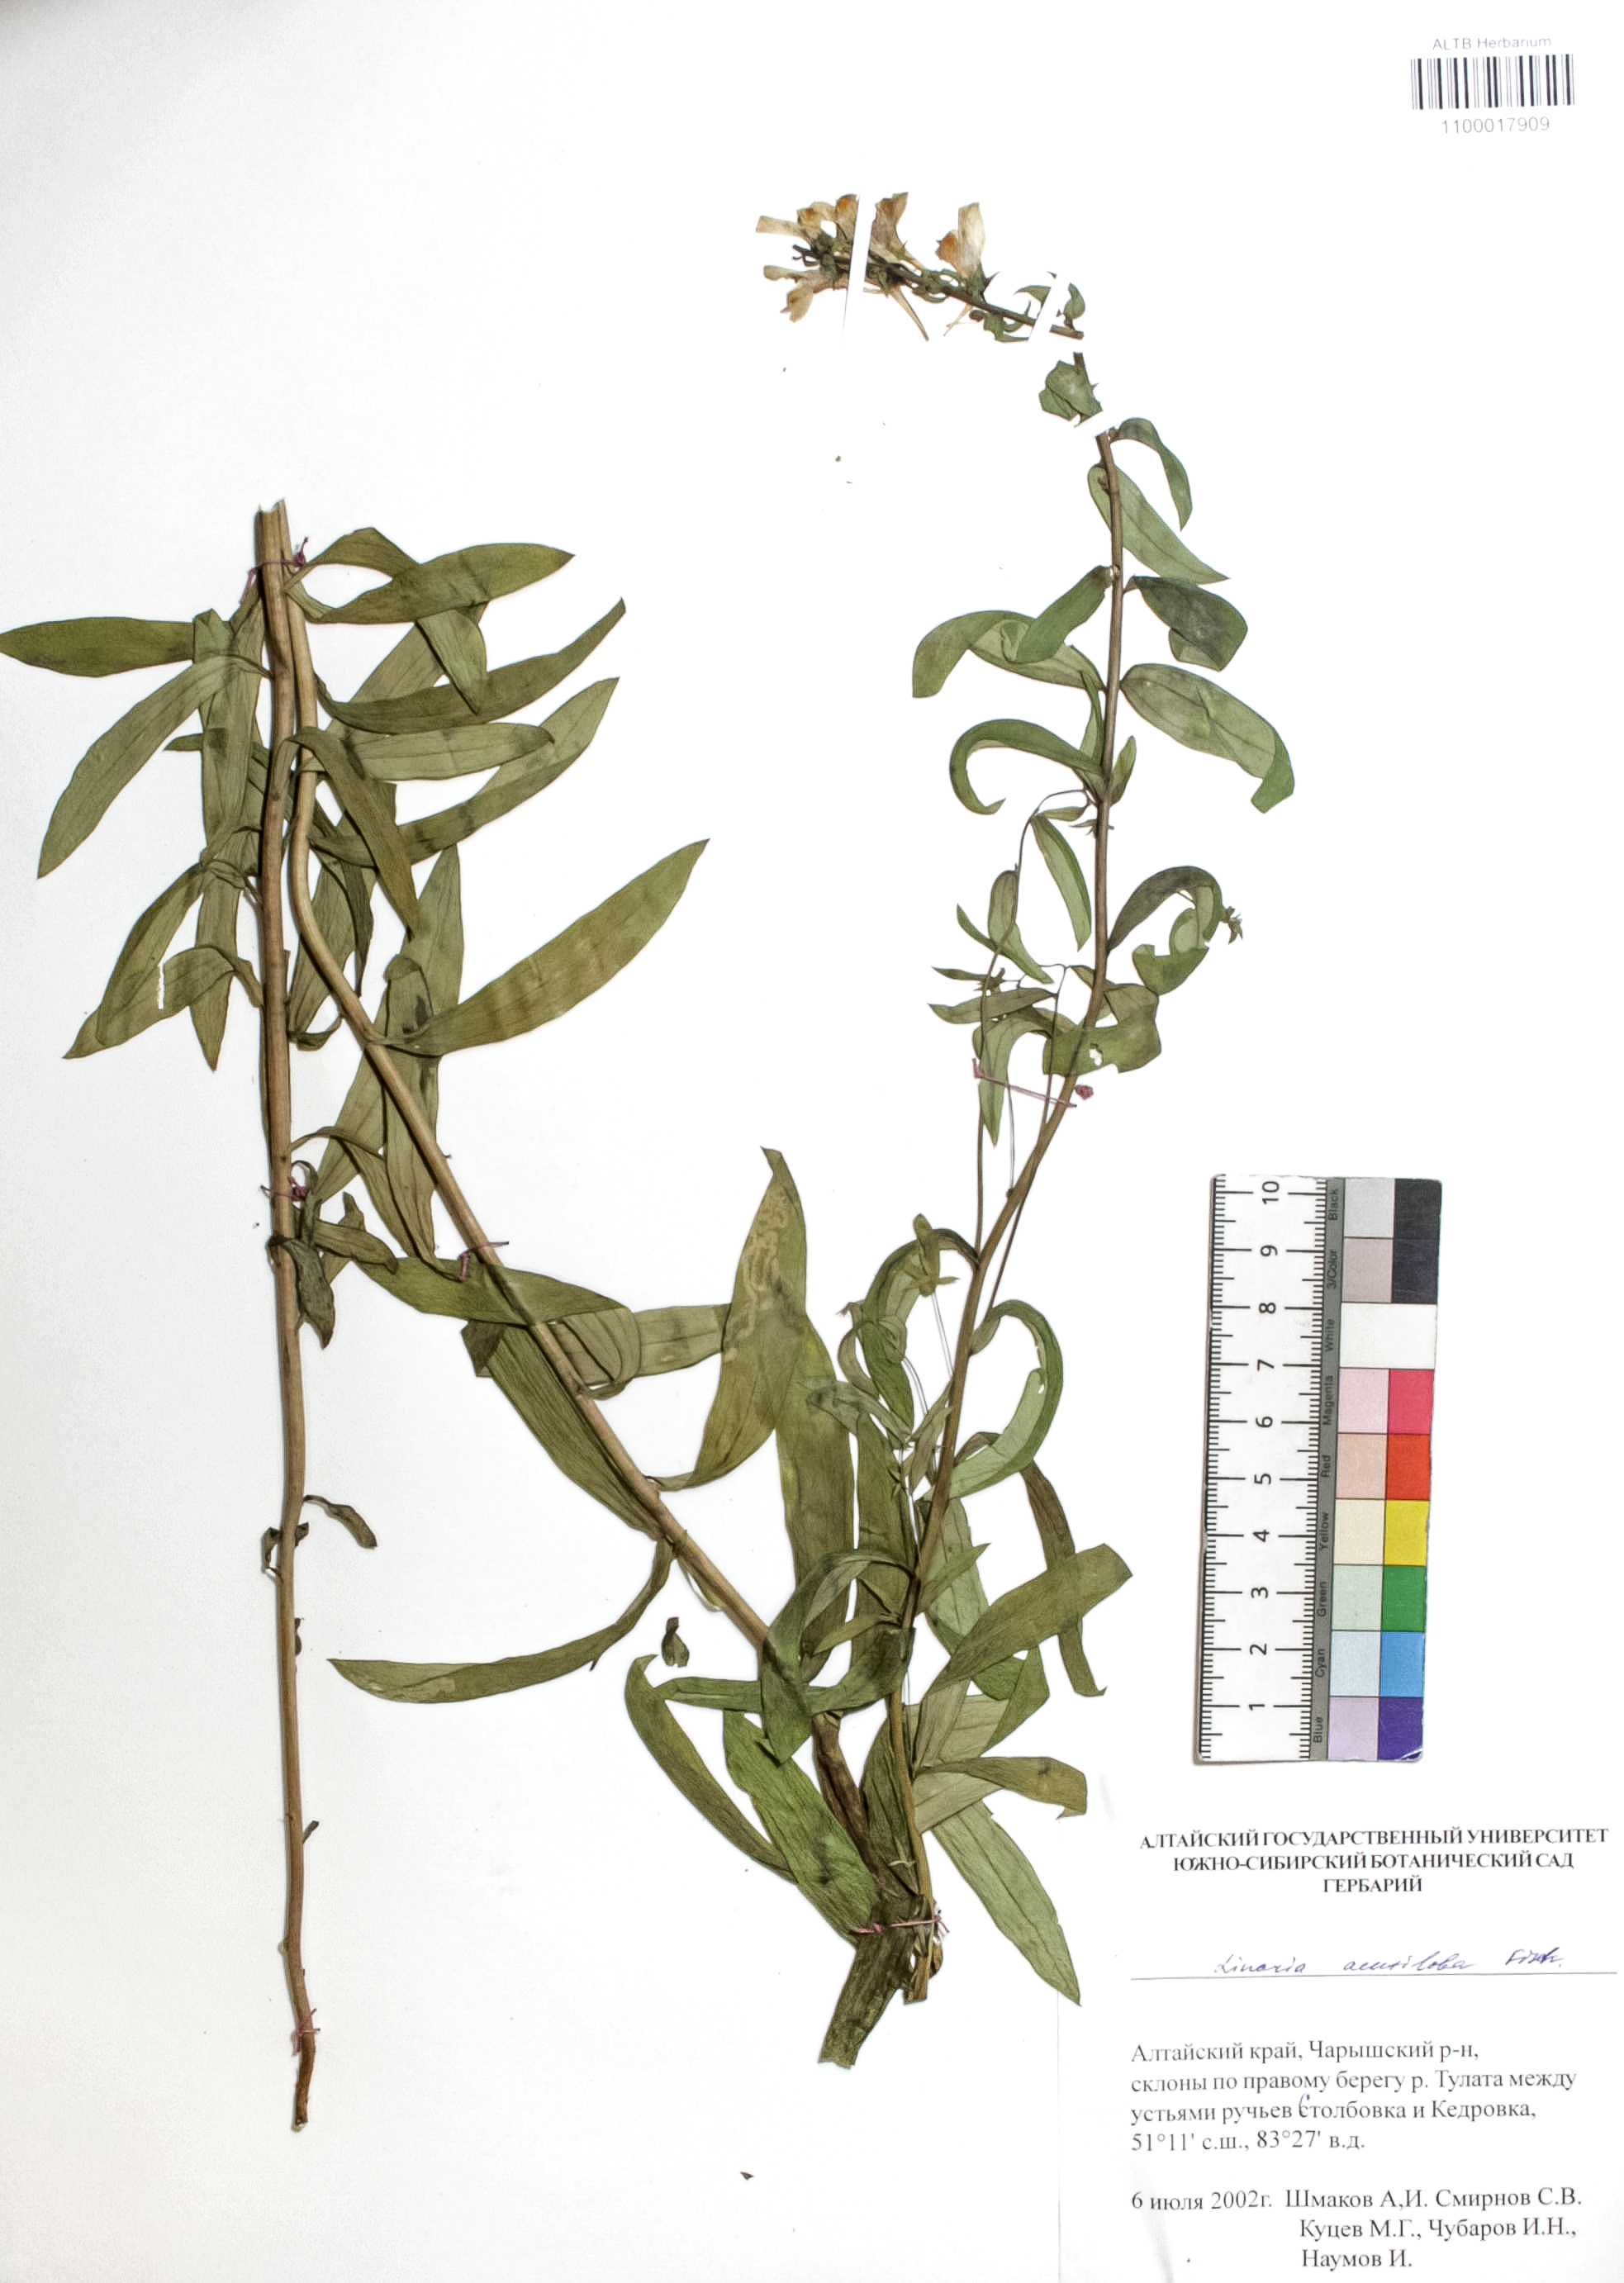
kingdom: Plantae
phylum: Tracheophyta
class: Magnoliopsida
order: Lamiales
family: Plantaginaceae
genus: Linaria
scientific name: Linaria acutiloba
